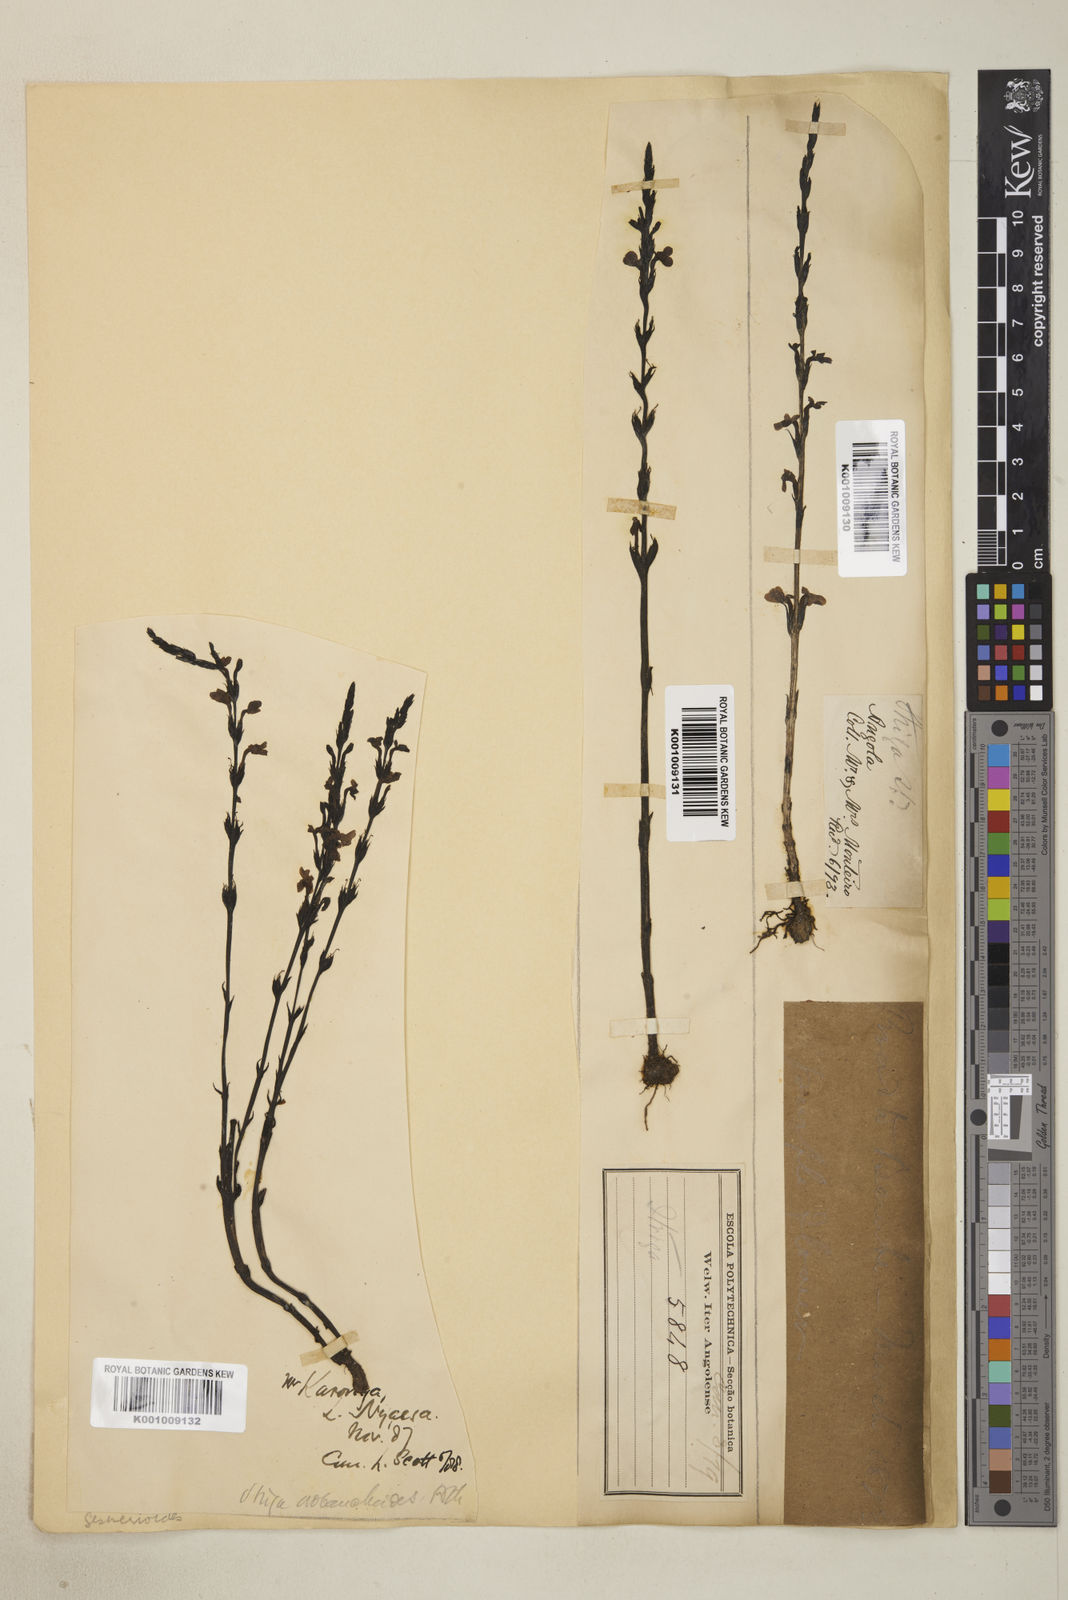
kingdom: Plantae
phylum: Tracheophyta
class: Magnoliopsida
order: Lamiales
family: Orobanchaceae
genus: Striga
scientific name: Striga gesnerioides
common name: Cowpea witchweed
